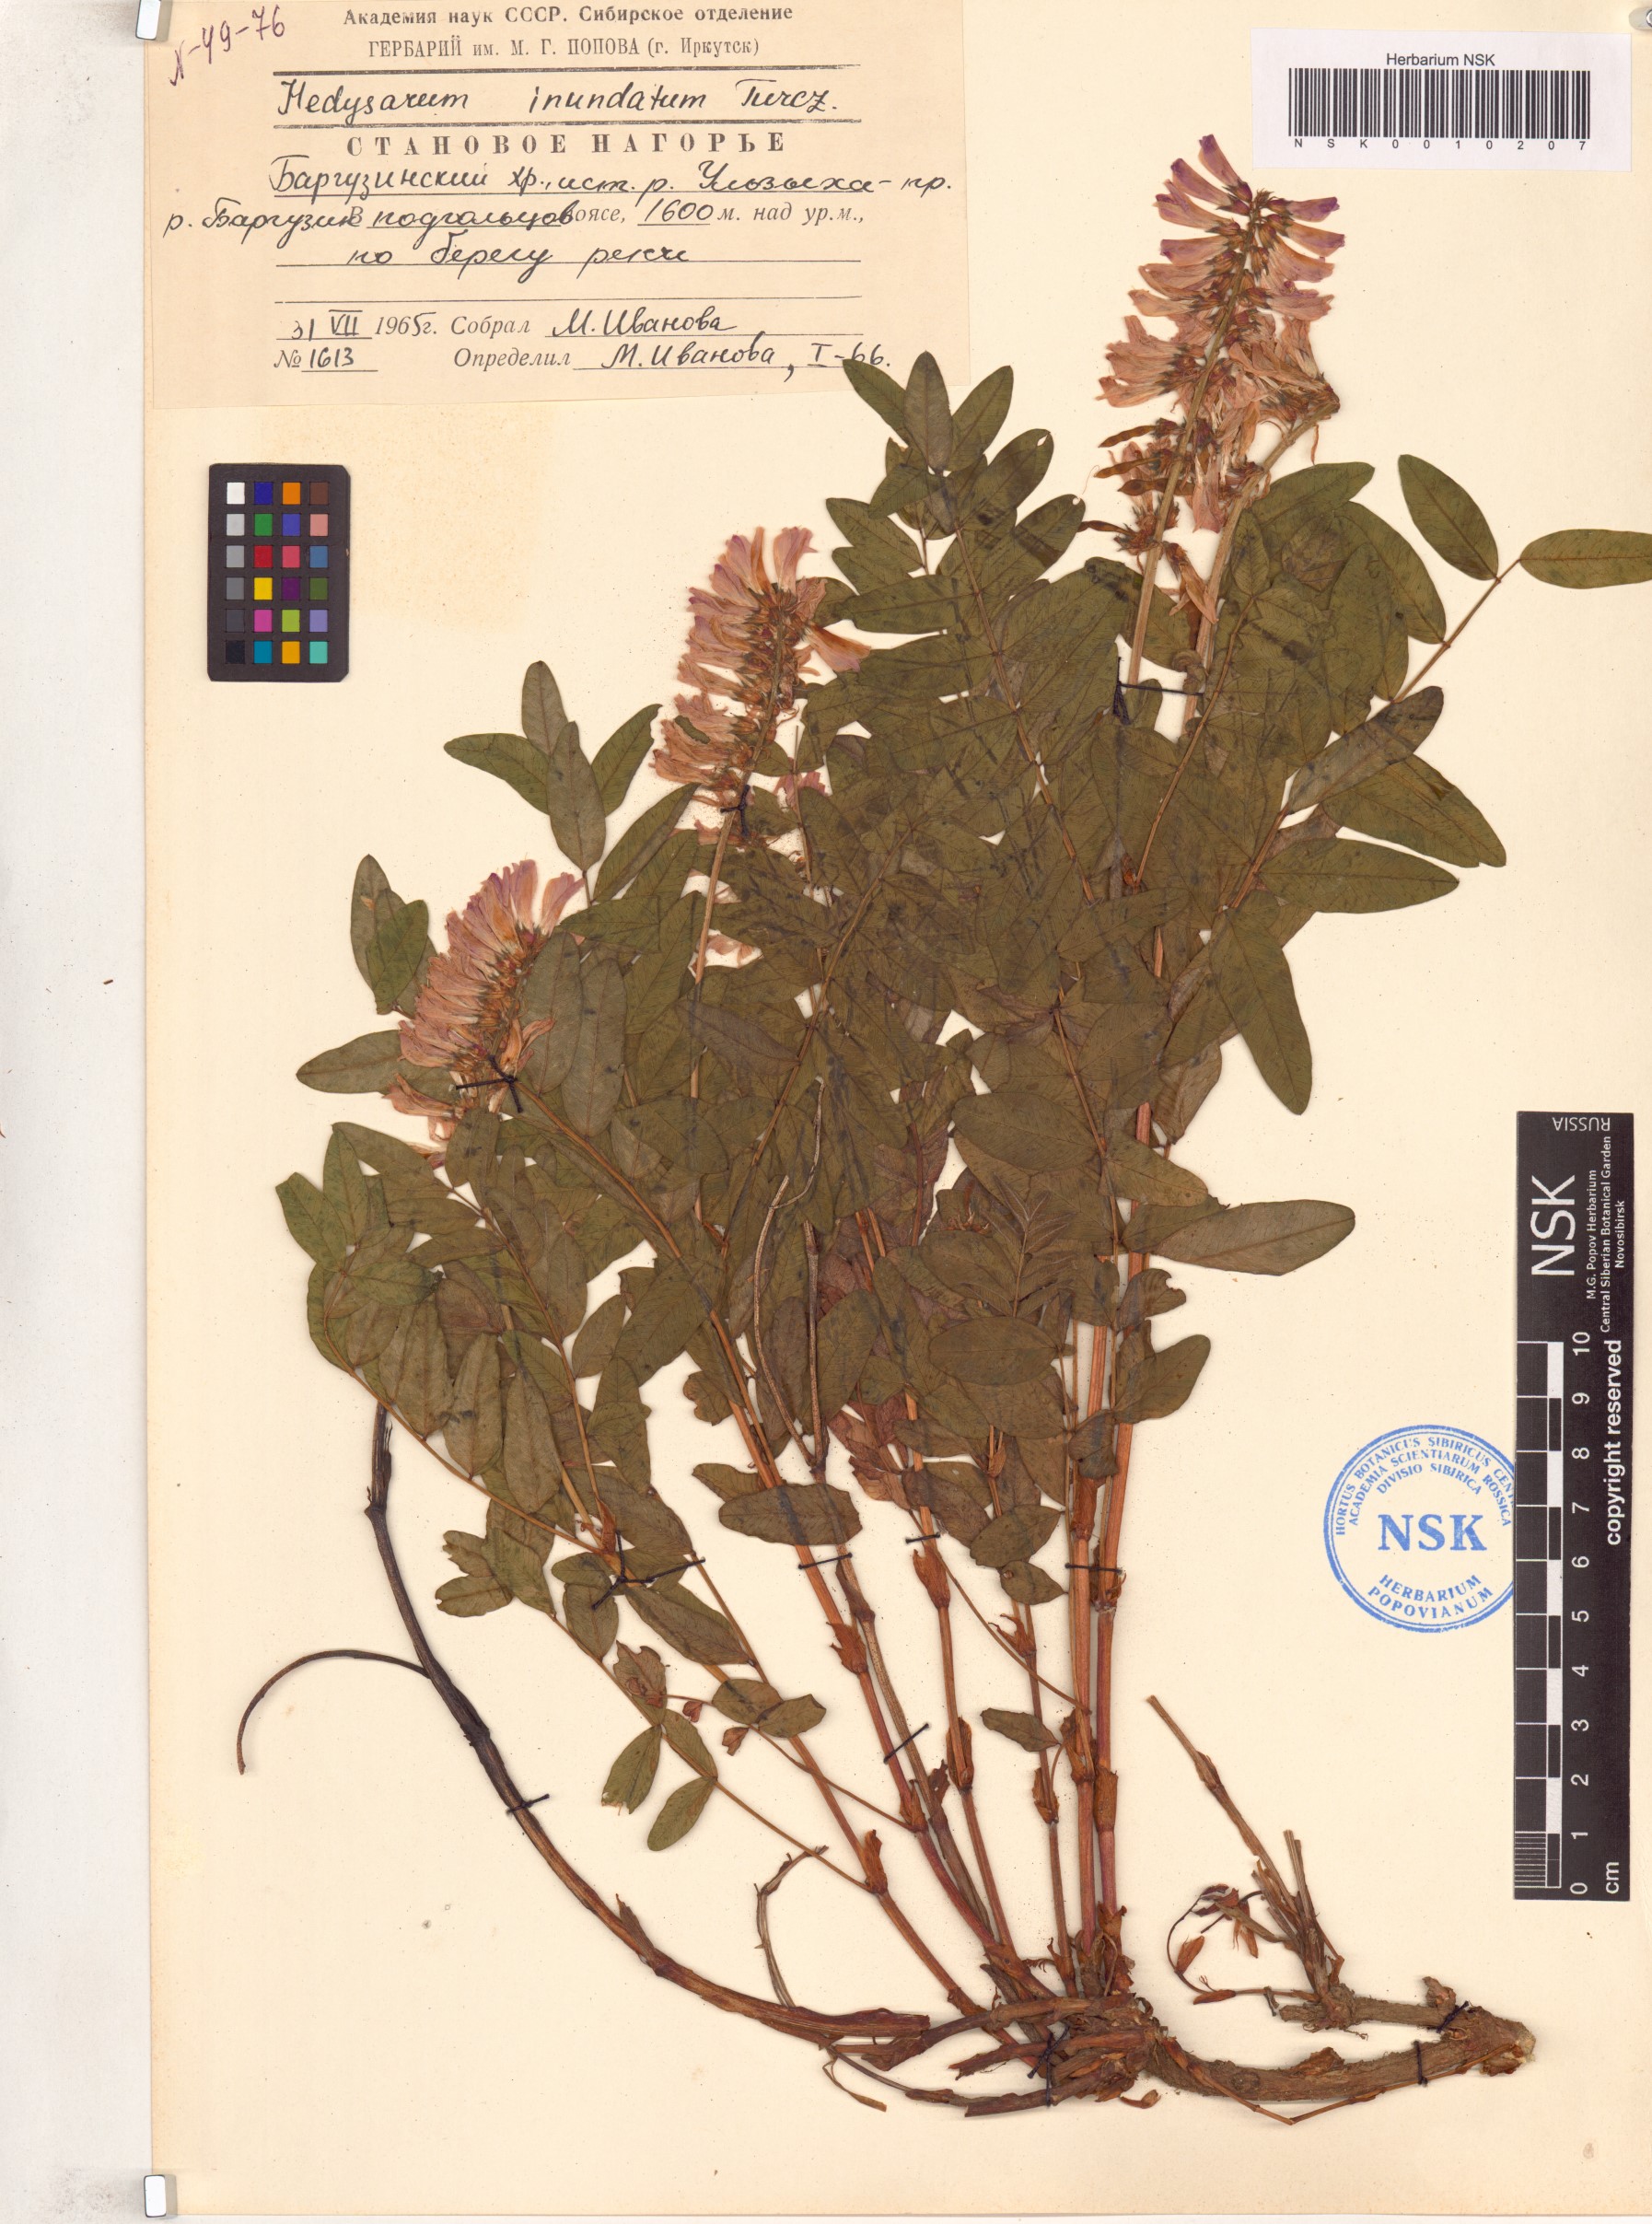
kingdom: Plantae
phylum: Tracheophyta
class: Magnoliopsida
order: Fabales
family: Fabaceae
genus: Hedysarum
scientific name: Hedysarum inundatum
